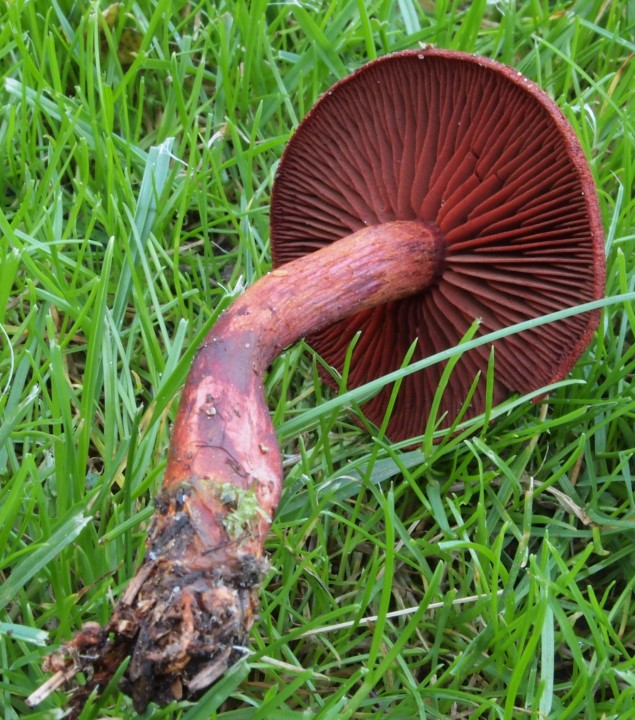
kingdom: Fungi
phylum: Basidiomycota
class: Agaricomycetes
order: Agaricales
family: Cortinariaceae
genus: Cortinarius
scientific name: Cortinarius sanguineus
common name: blodrød slørhat
